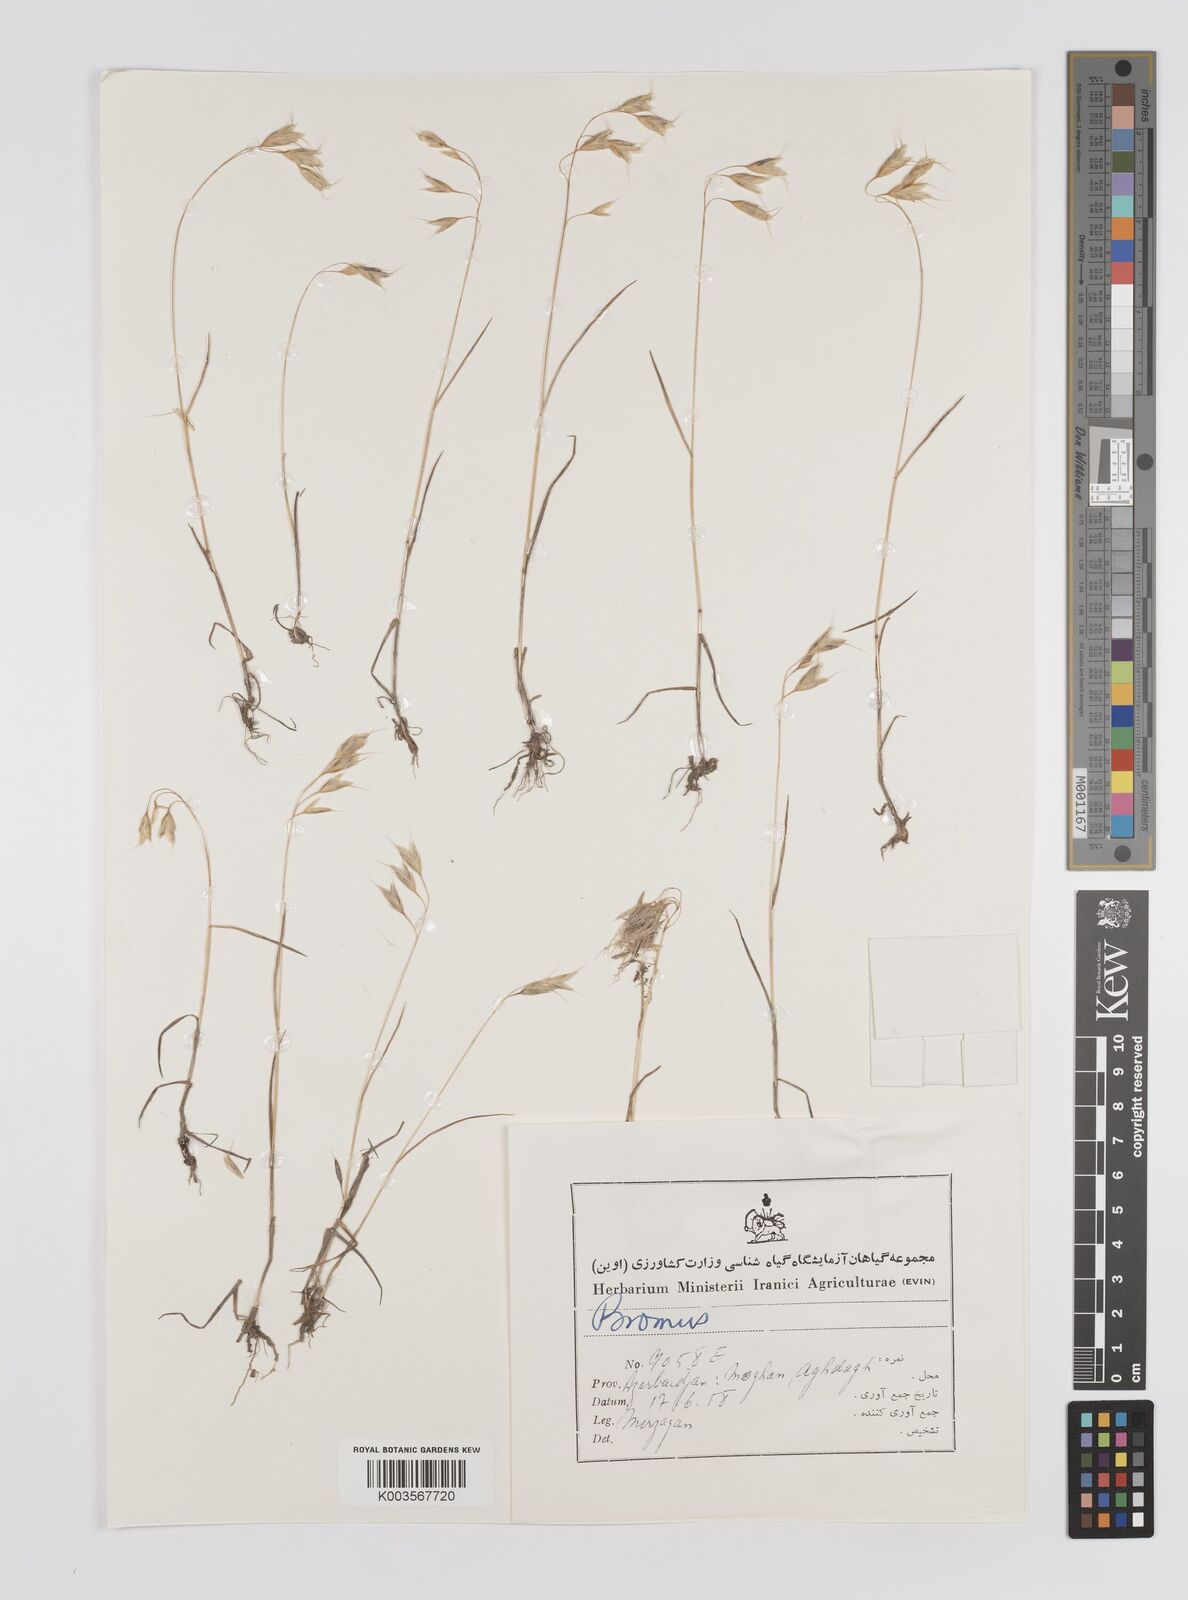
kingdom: Plantae
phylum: Tracheophyta
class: Liliopsida
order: Poales
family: Poaceae
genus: Bromus
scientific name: Bromus
